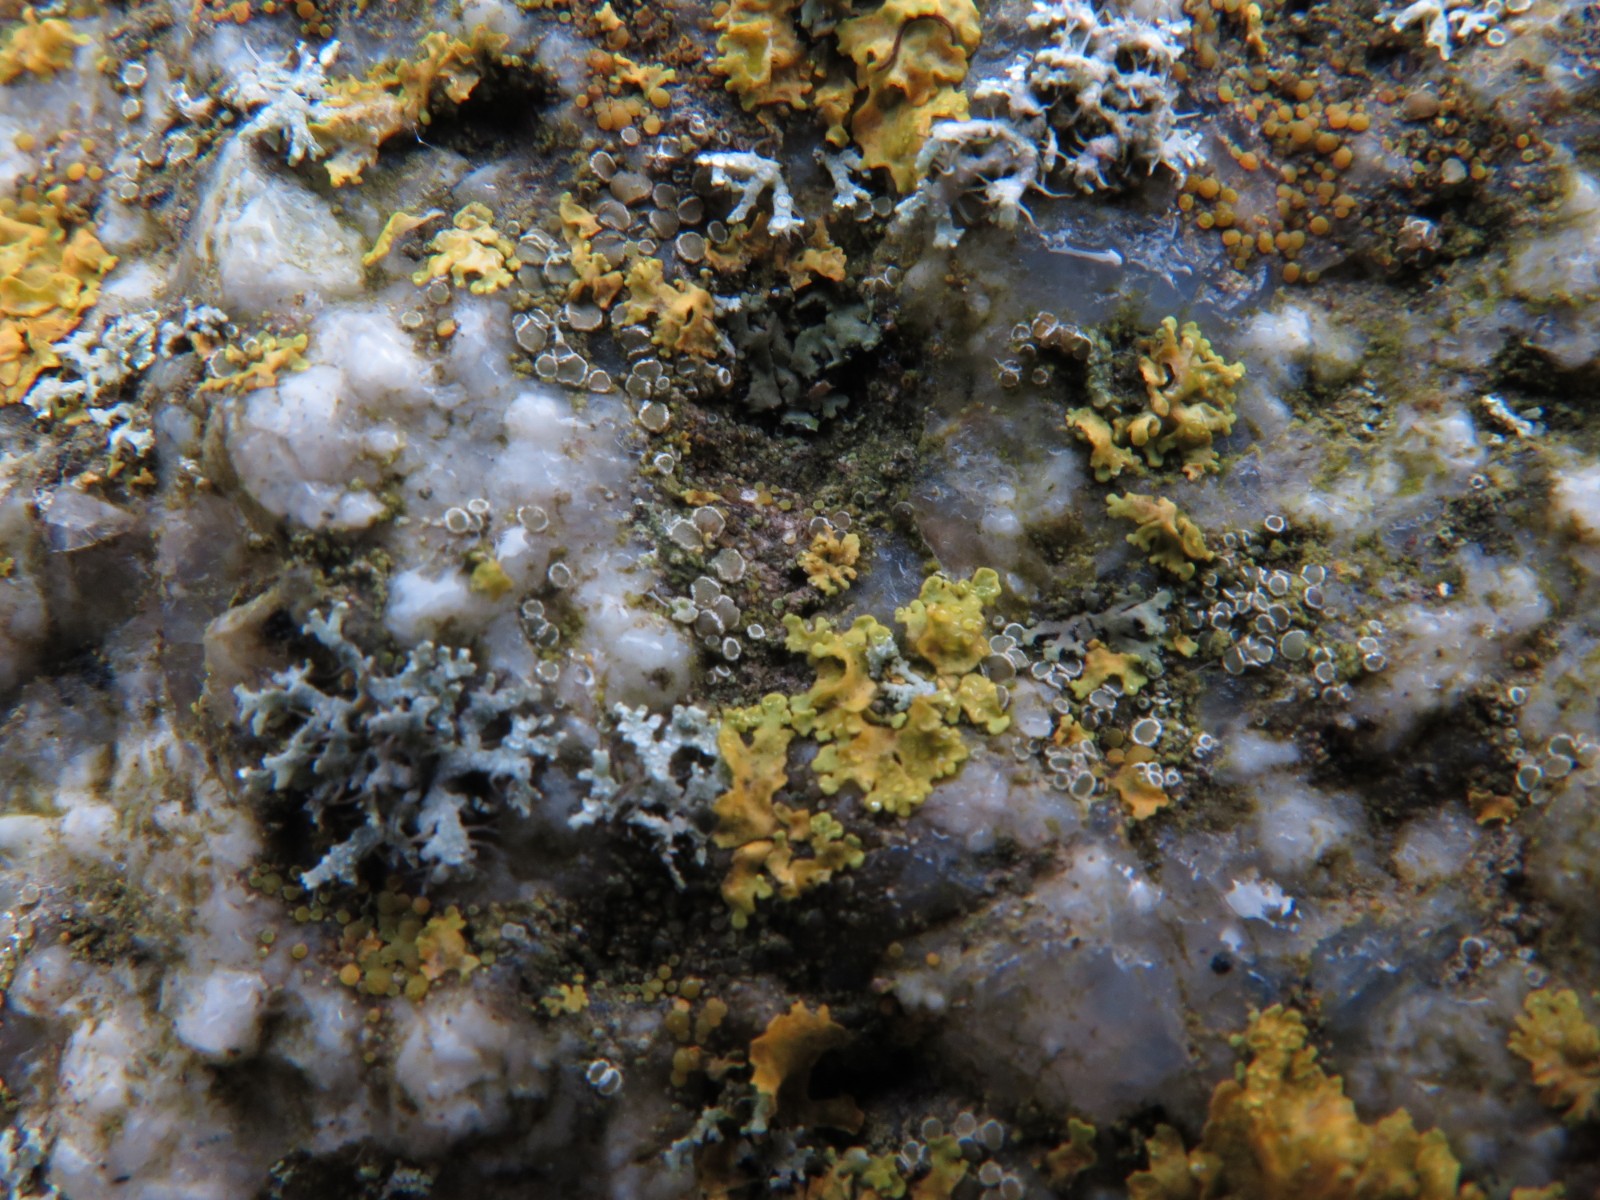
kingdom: Fungi
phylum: Ascomycota
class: Lecanoromycetes
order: Lecanorales
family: Lecanoraceae
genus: Polyozosia
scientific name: Polyozosia dispersa
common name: spredt kantskivelav
